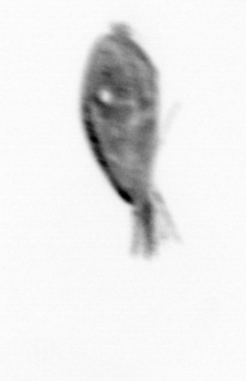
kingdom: Animalia
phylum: Arthropoda
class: Maxillopoda
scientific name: Maxillopoda
